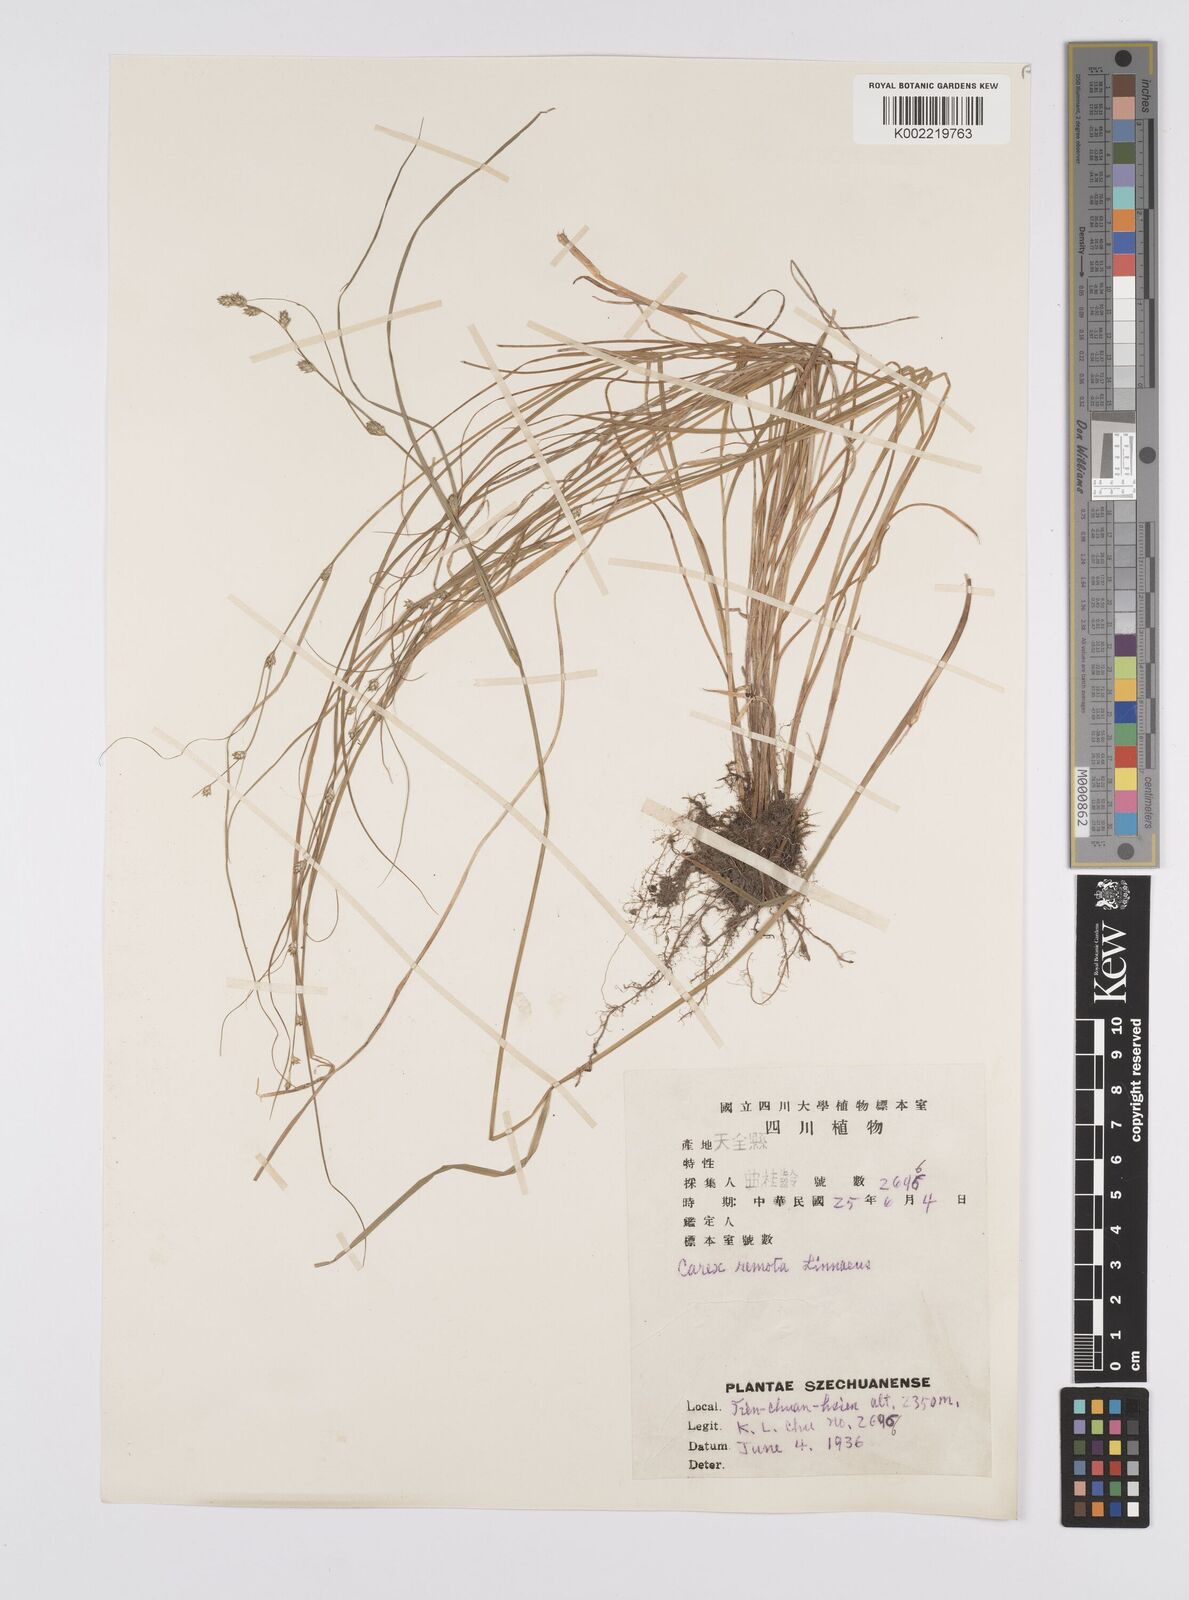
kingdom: Plantae
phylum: Tracheophyta
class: Liliopsida
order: Poales
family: Cyperaceae
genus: Carex
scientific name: Carex remota
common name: Remote sedge
